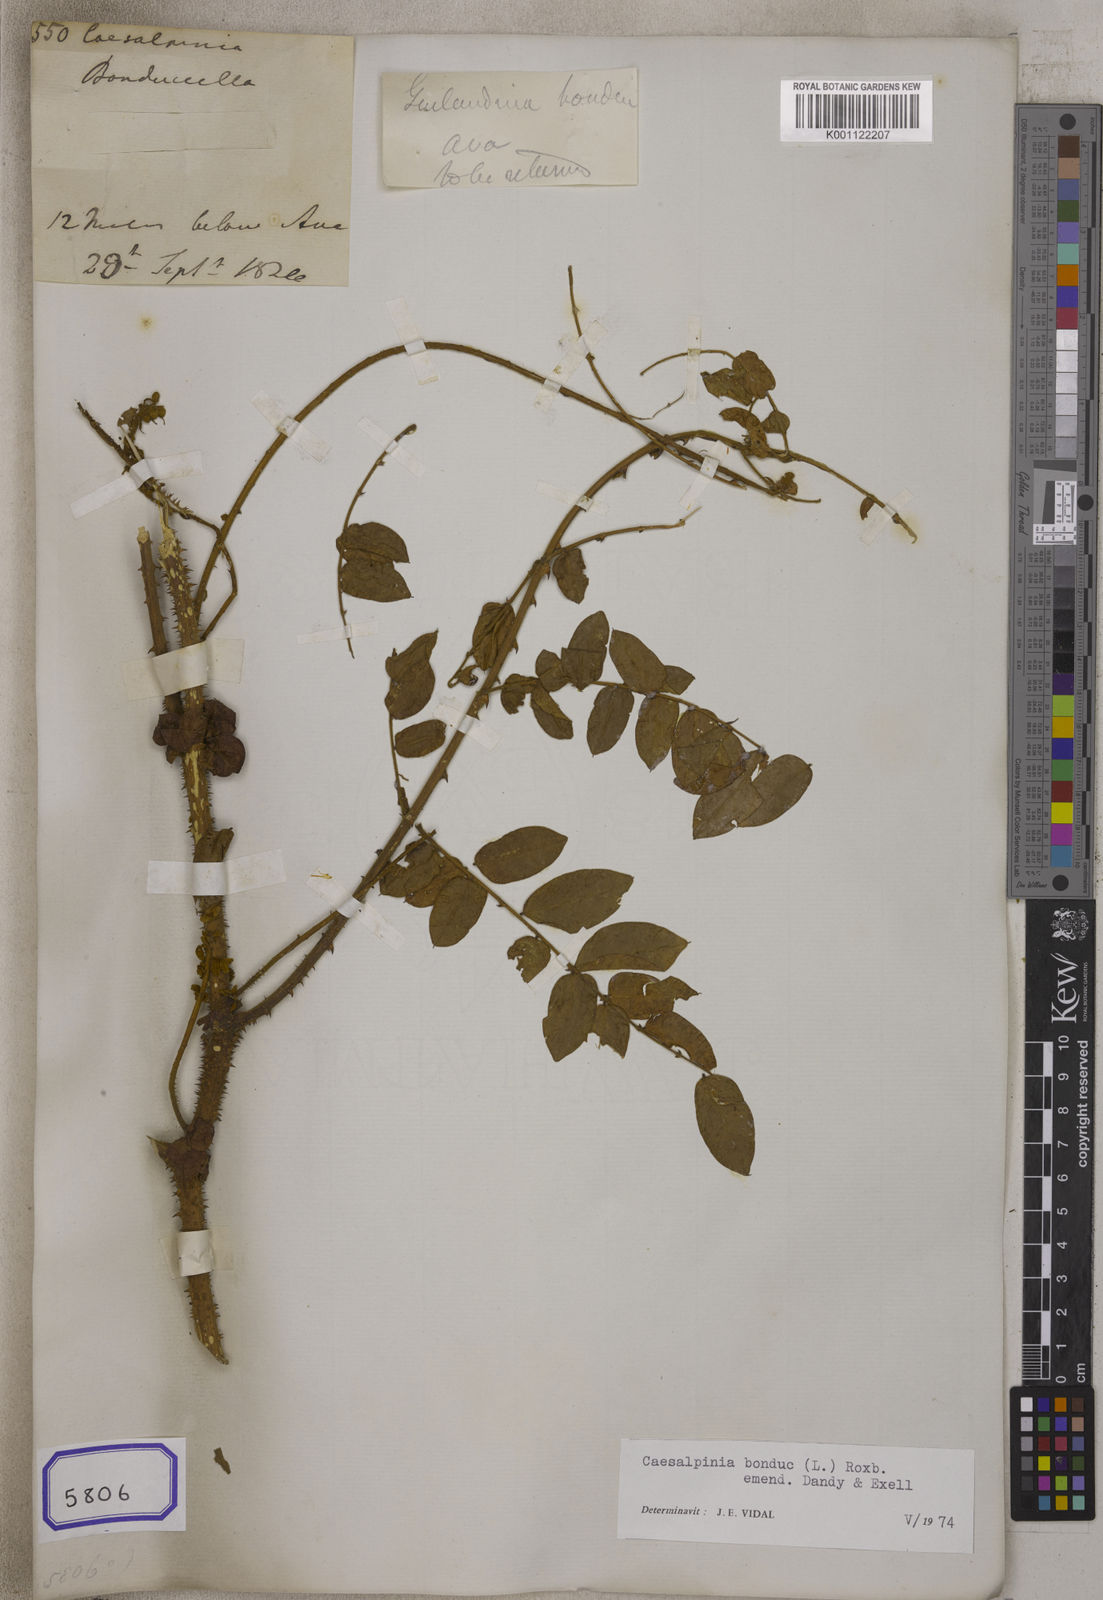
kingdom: Plantae
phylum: Tracheophyta
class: Magnoliopsida
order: Fabales
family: Fabaceae
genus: Guilandina
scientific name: Guilandina bonduc
